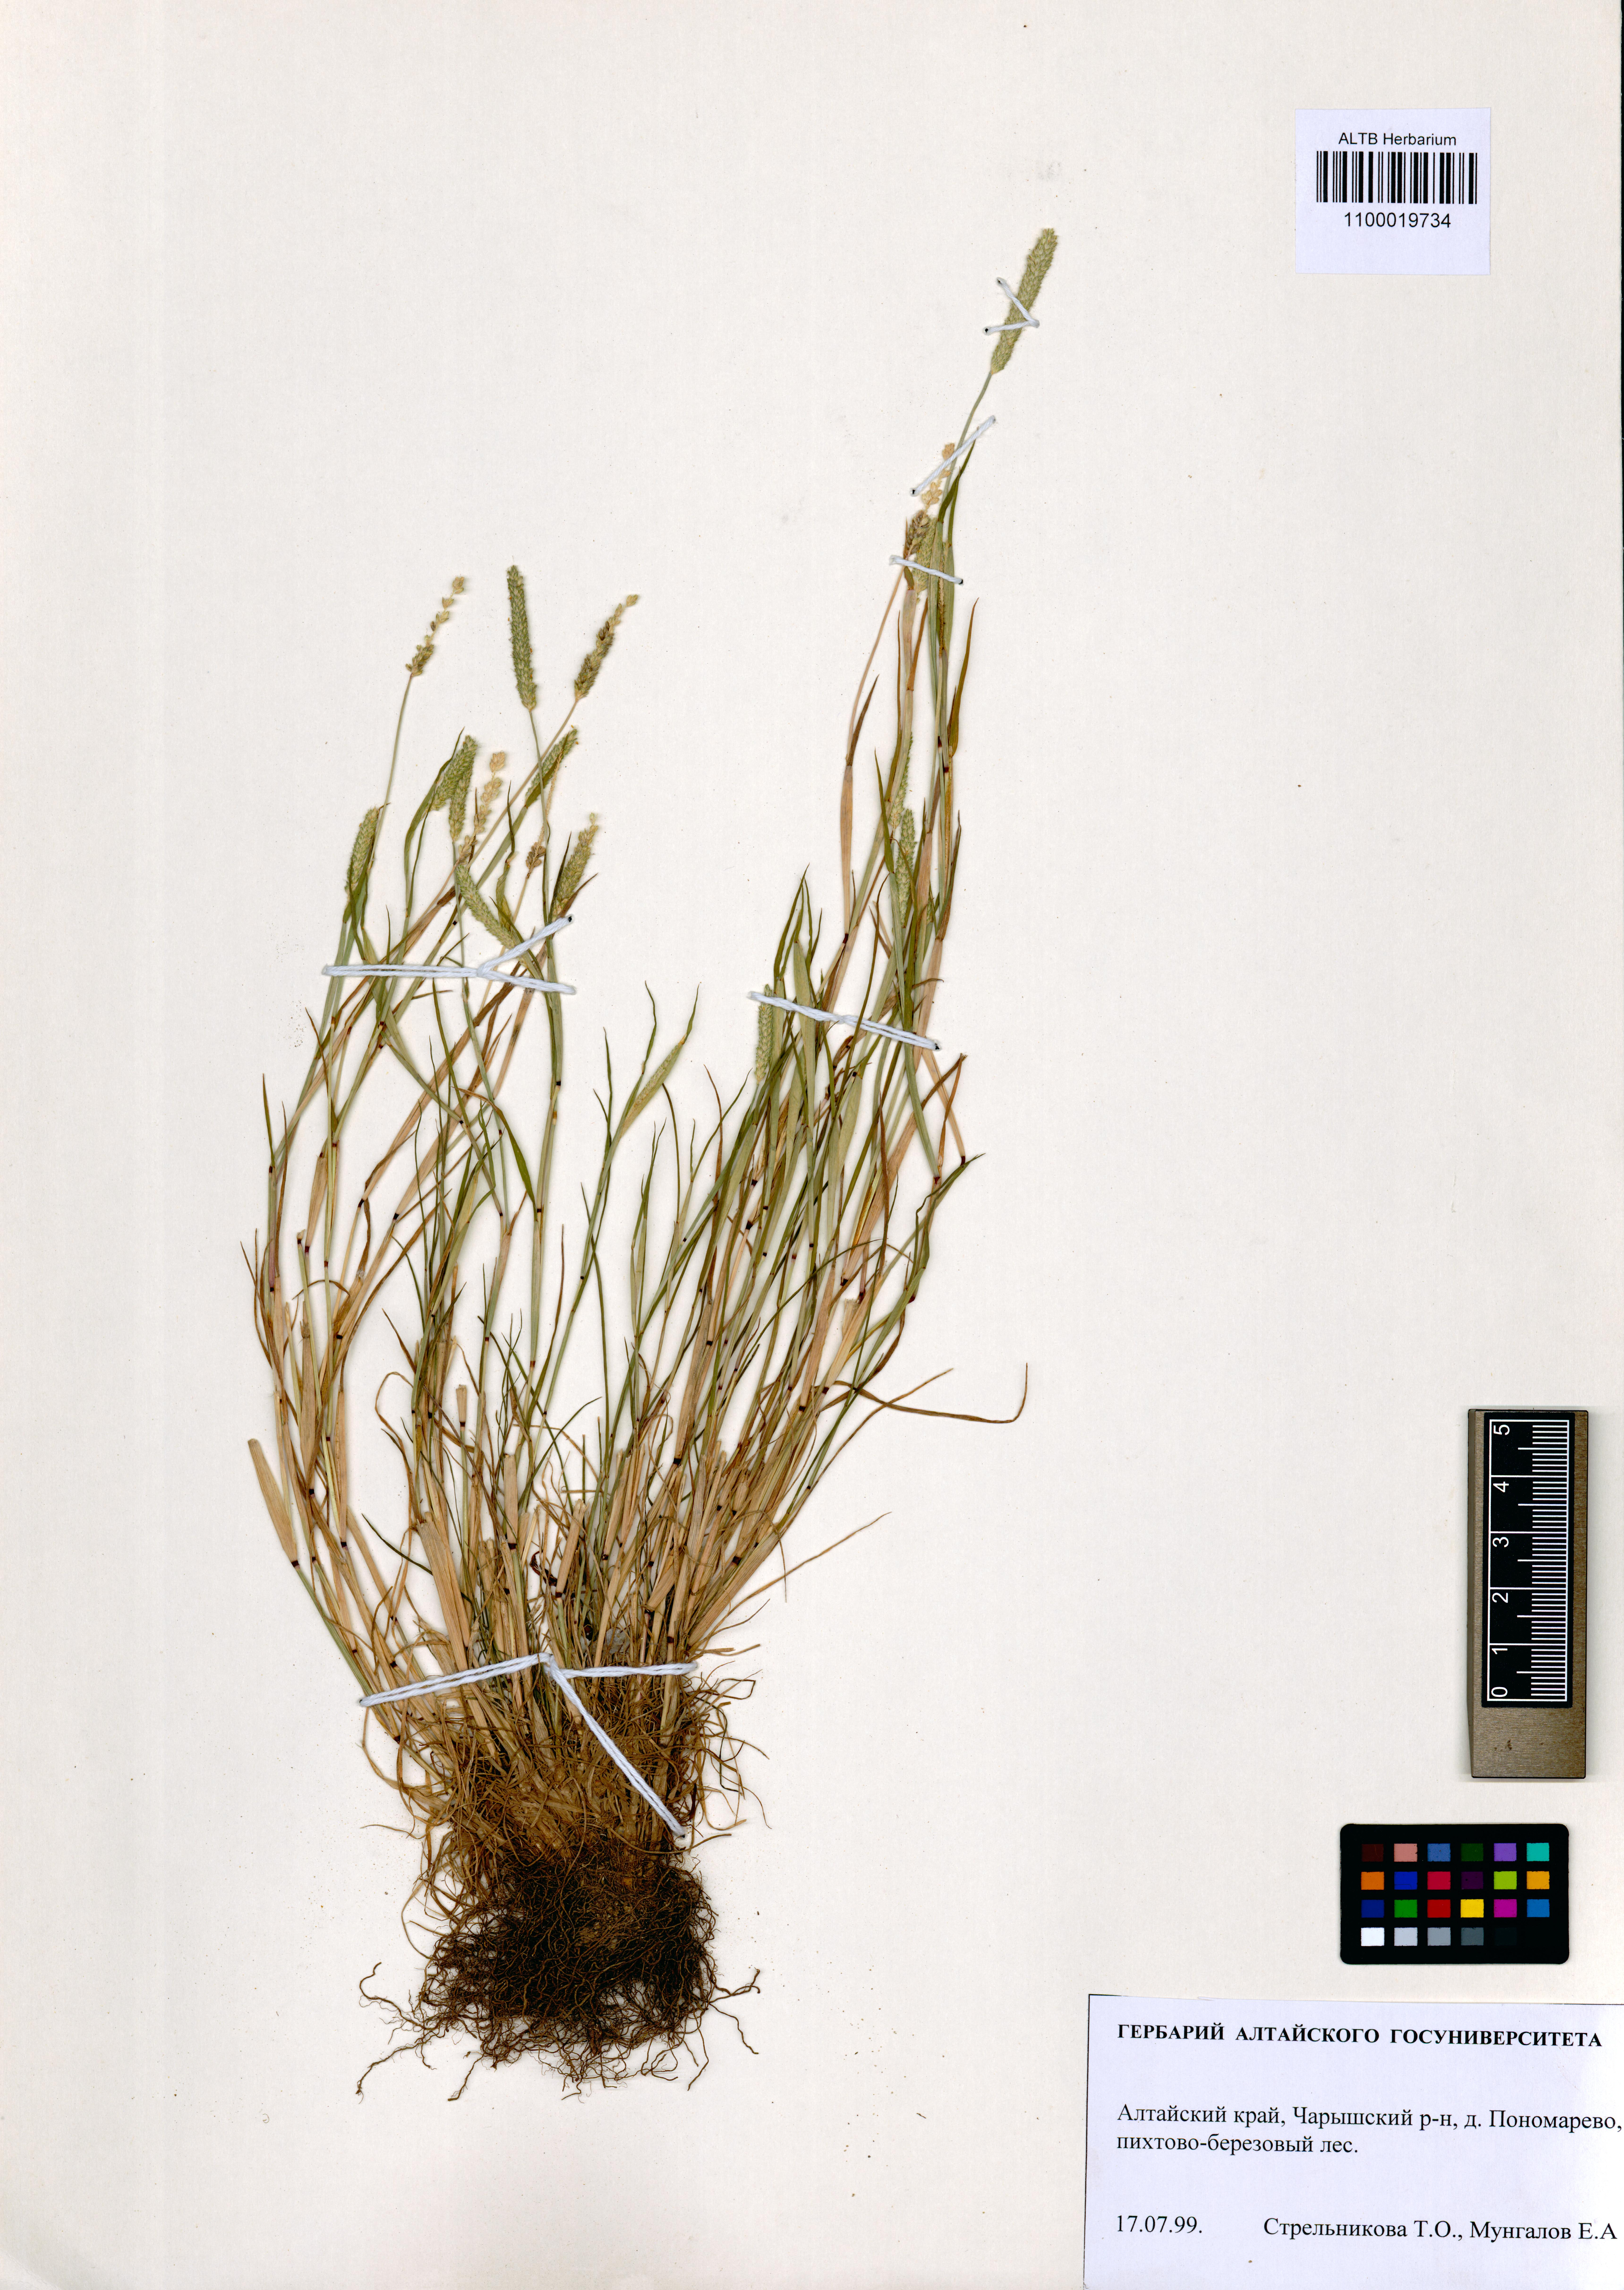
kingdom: Plantae
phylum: Tracheophyta
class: Liliopsida
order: Poales
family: Poaceae
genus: Alopecurus
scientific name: Alopecurus aequalis
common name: Orange foxtail
